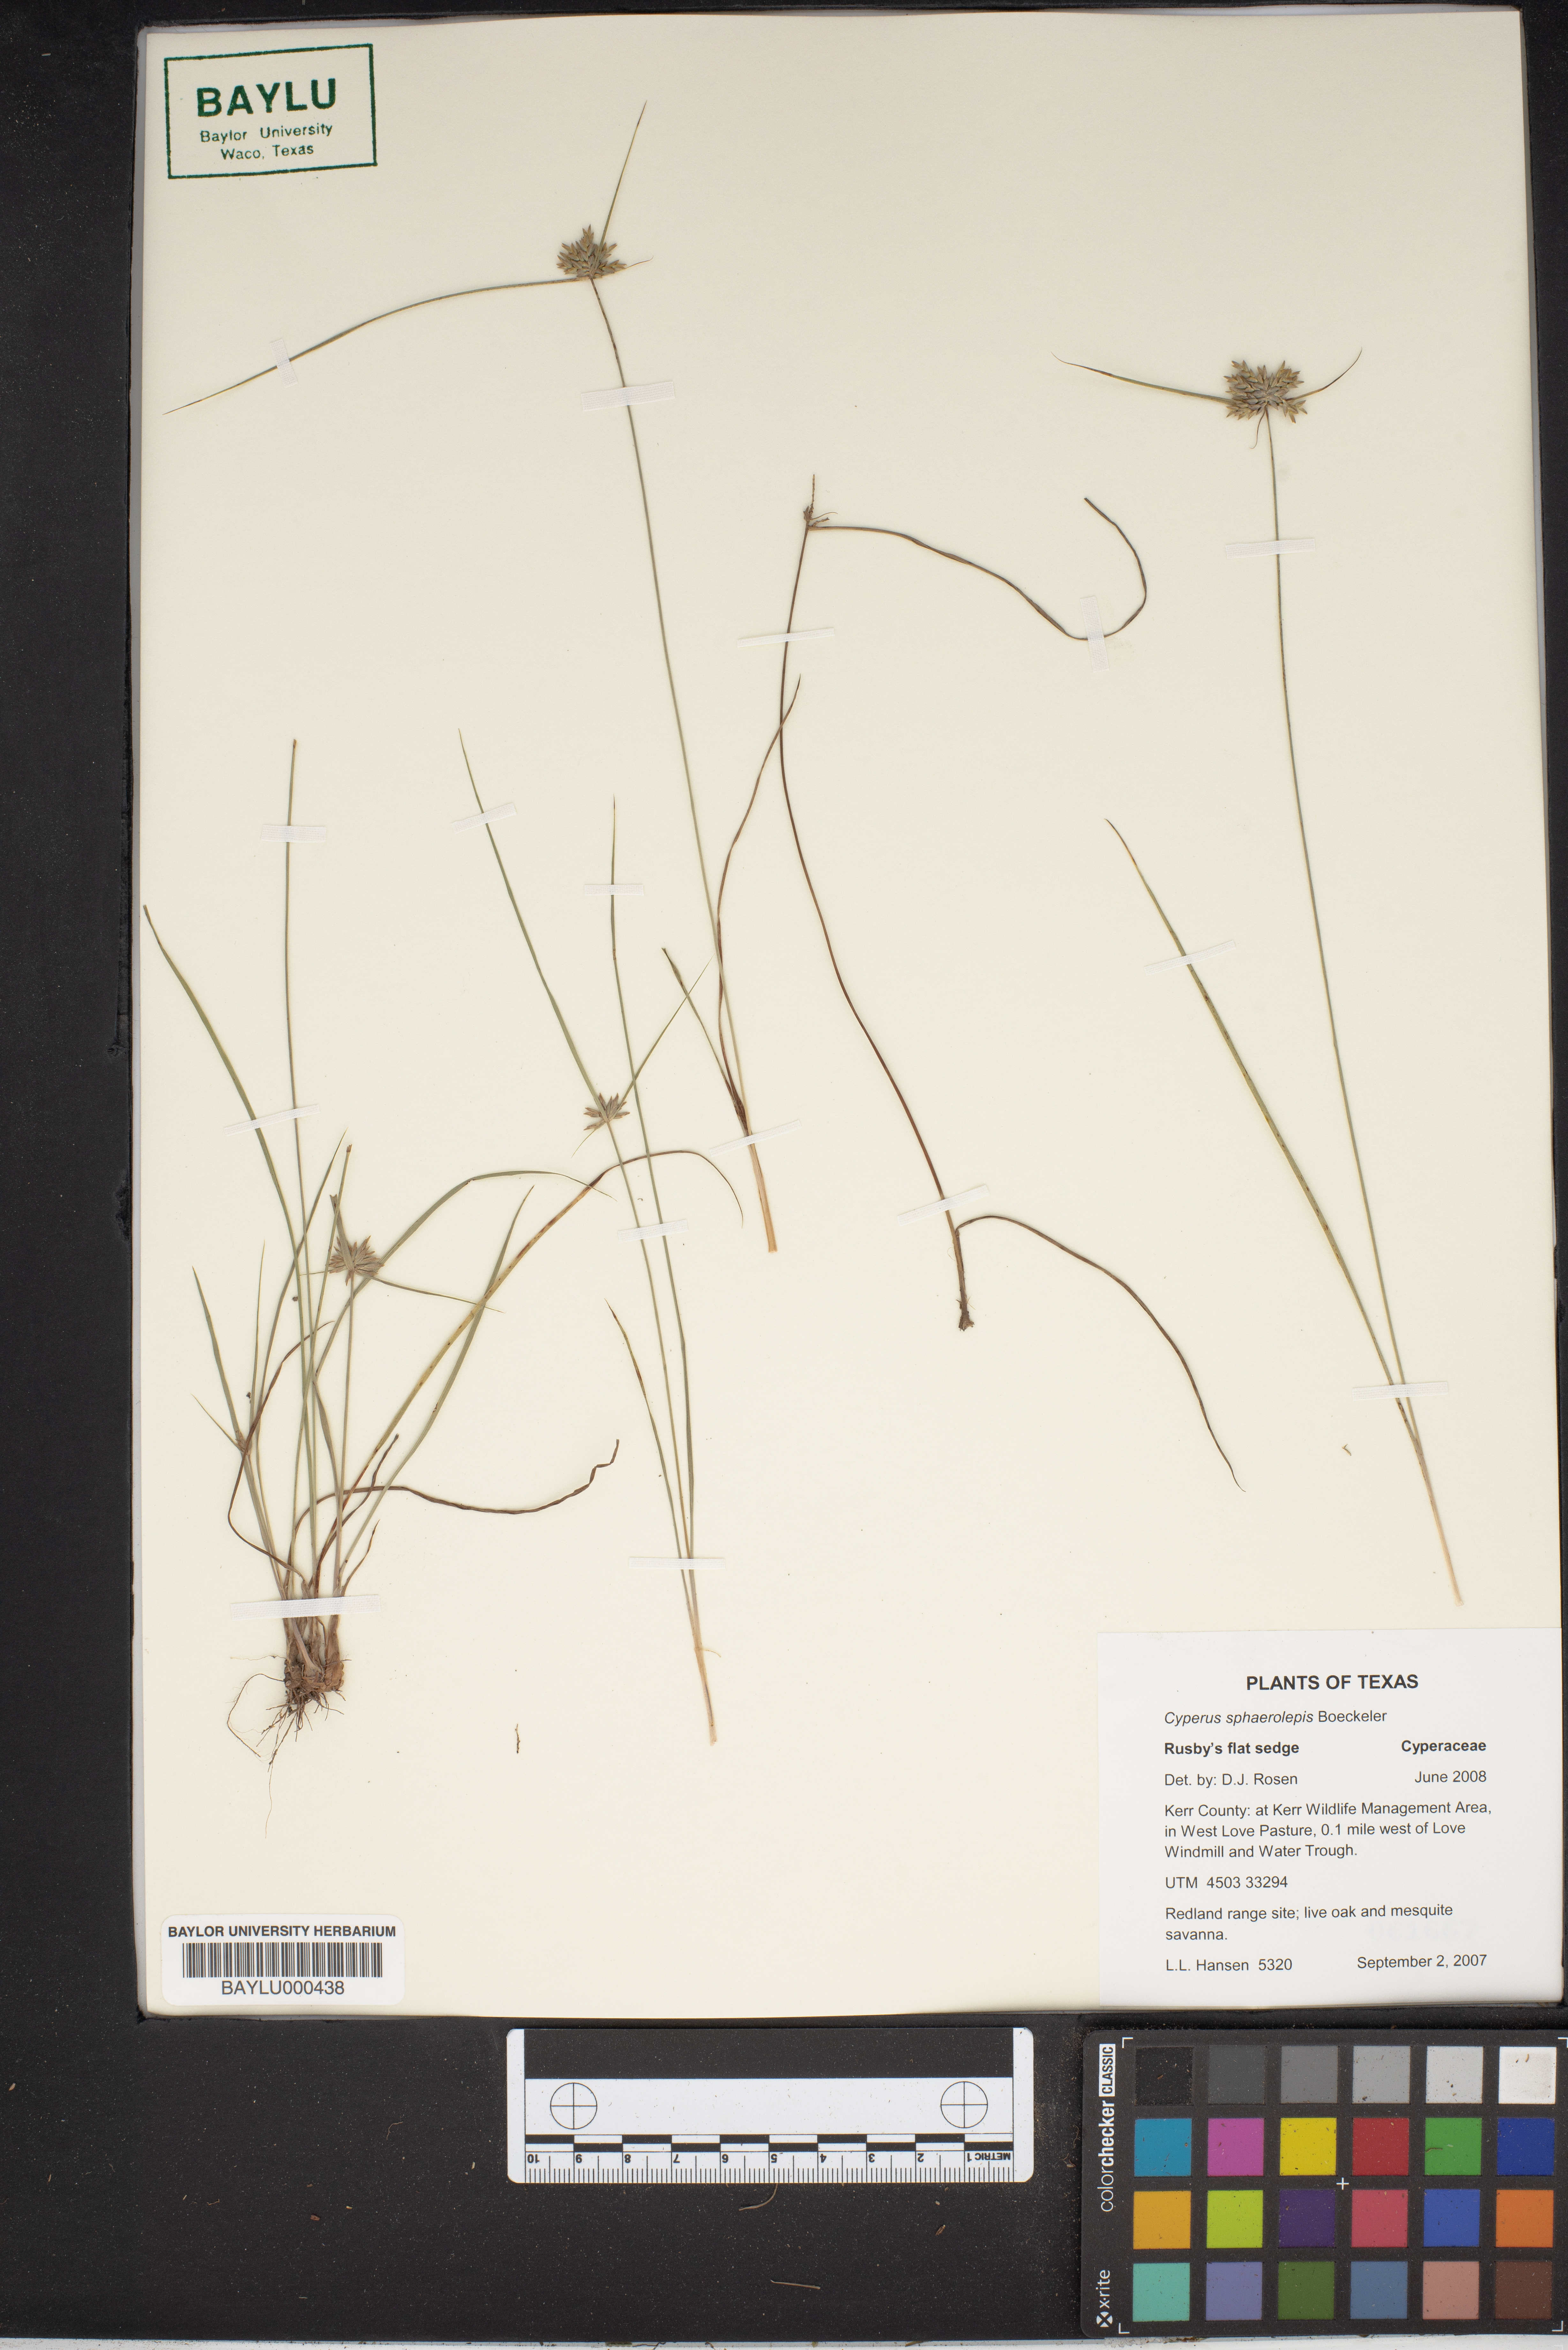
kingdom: Plantae
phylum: Tracheophyta
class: Liliopsida
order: Poales
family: Cyperaceae
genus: Cyperus
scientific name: Cyperus sphaerolepis
